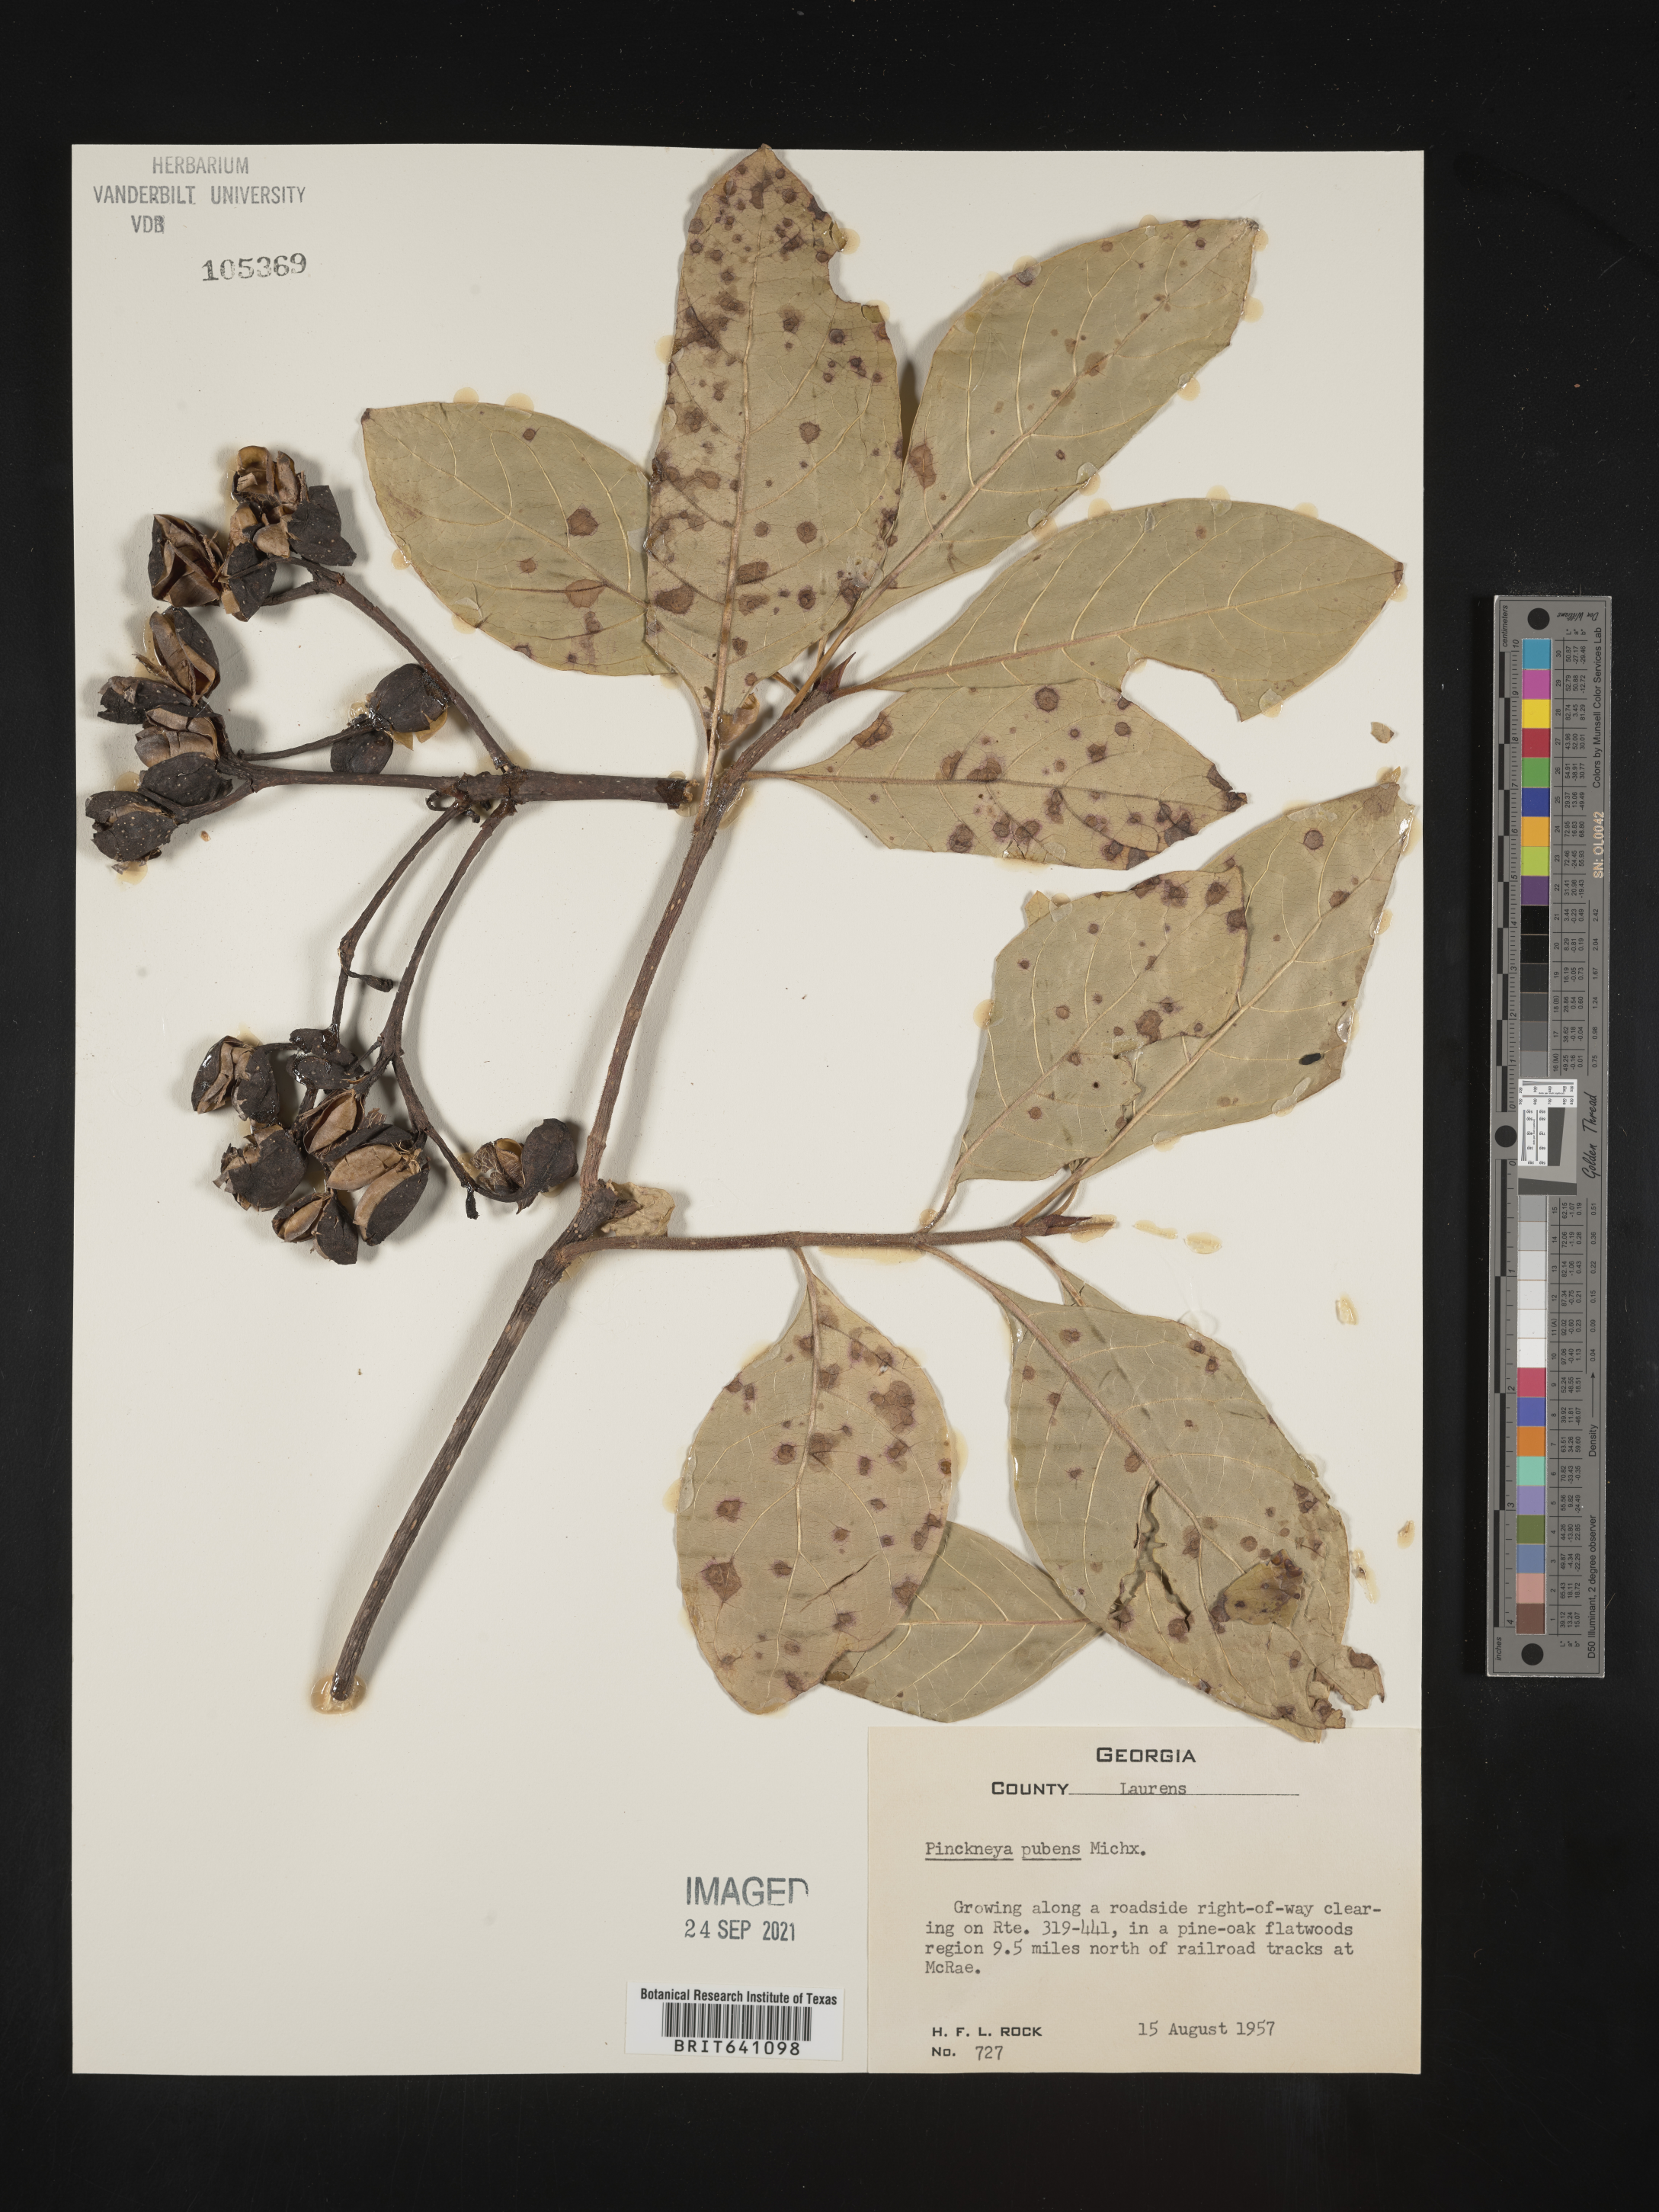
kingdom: Plantae
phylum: Tracheophyta
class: Magnoliopsida
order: Gentianales
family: Rubiaceae
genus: Pinckneya
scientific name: Pinckneya pubens
